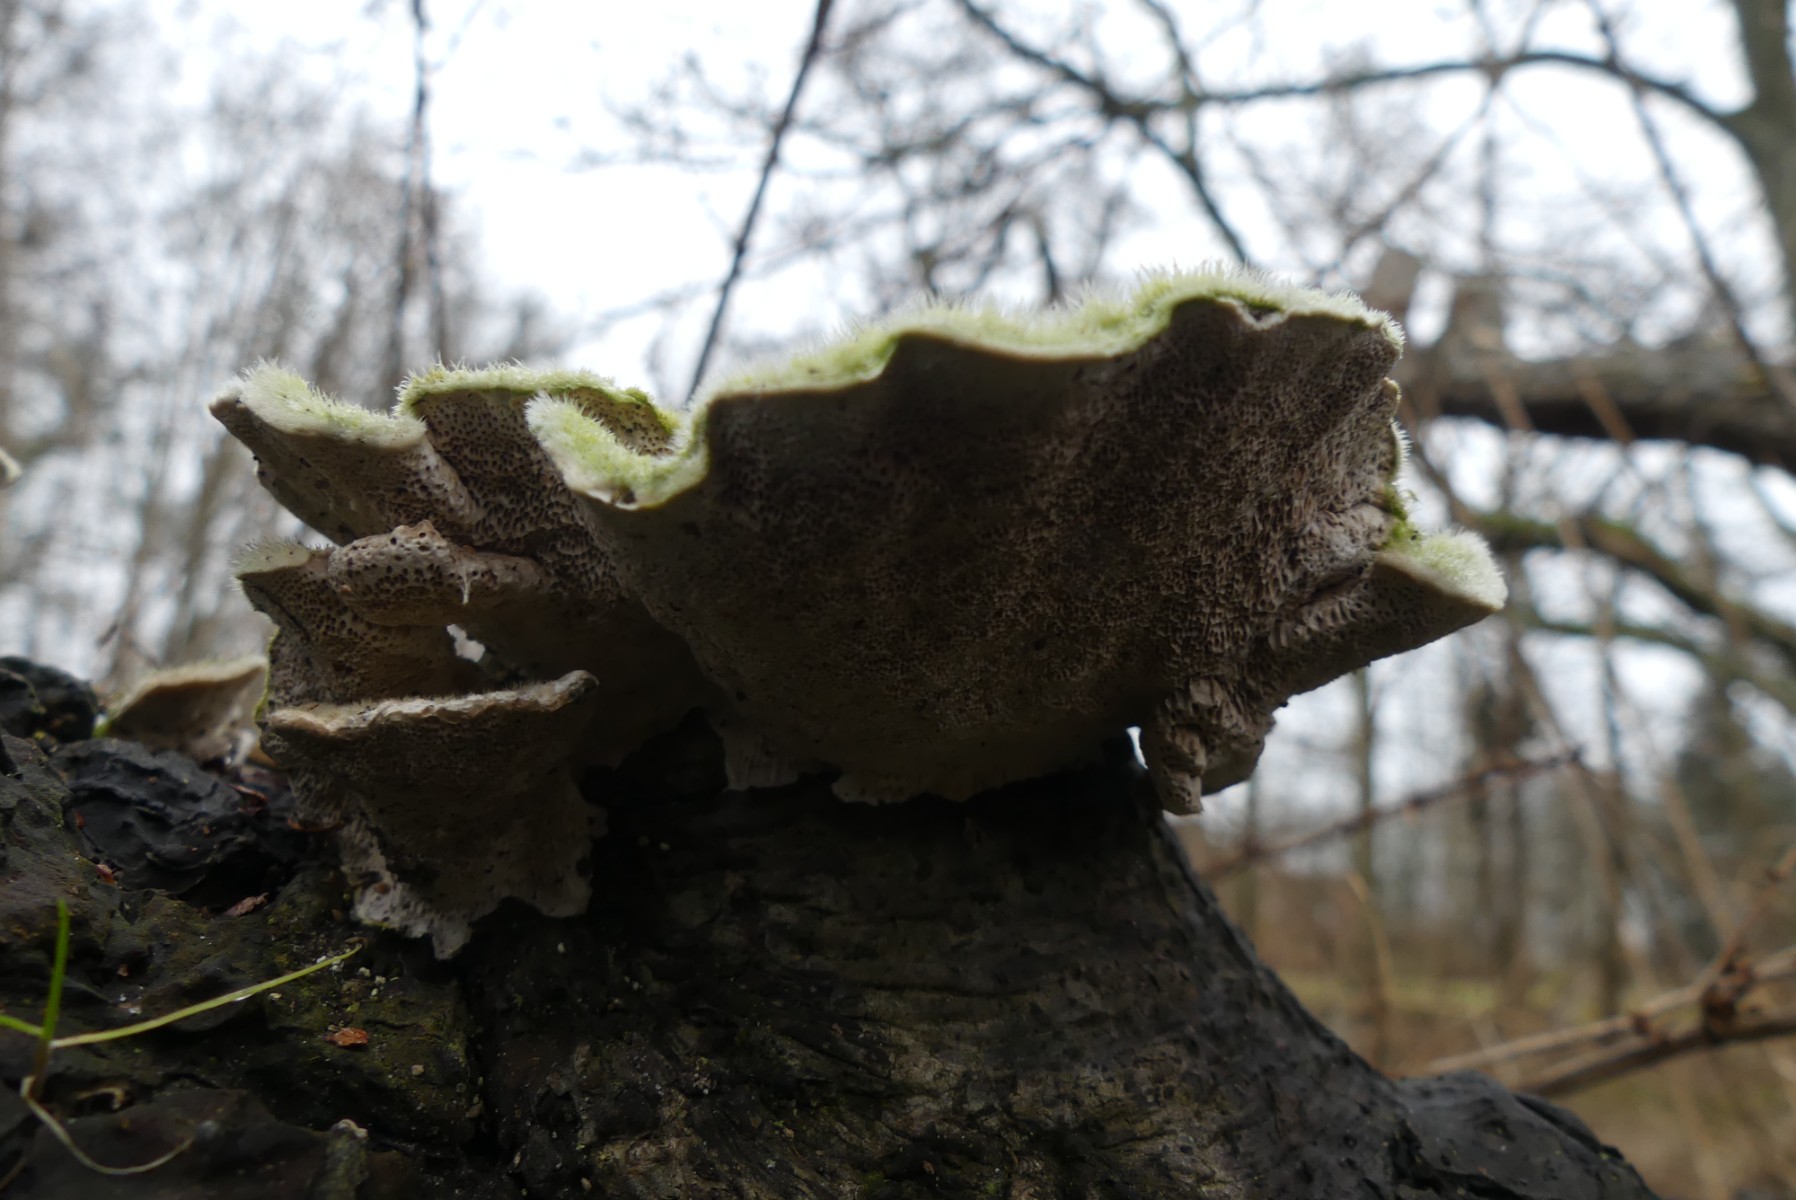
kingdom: Fungi
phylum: Basidiomycota
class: Agaricomycetes
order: Polyporales
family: Polyporaceae
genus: Trametes
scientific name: Trametes hirsuta
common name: håret læderporesvamp
